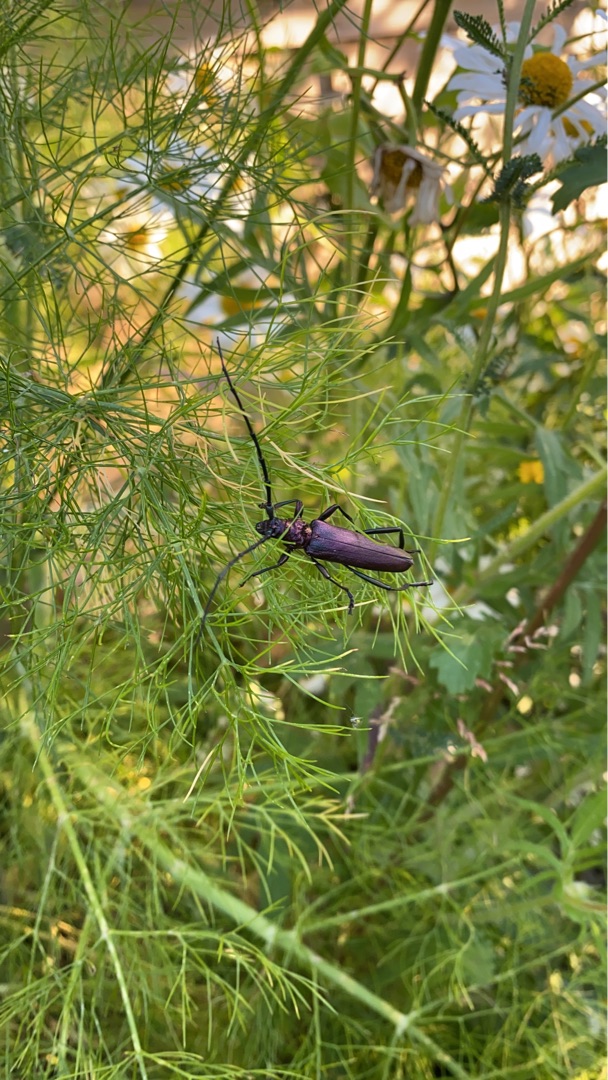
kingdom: Animalia
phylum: Arthropoda
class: Insecta
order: Coleoptera
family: Cerambycidae
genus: Aromia
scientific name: Aromia moschata
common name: Moskusbuk
